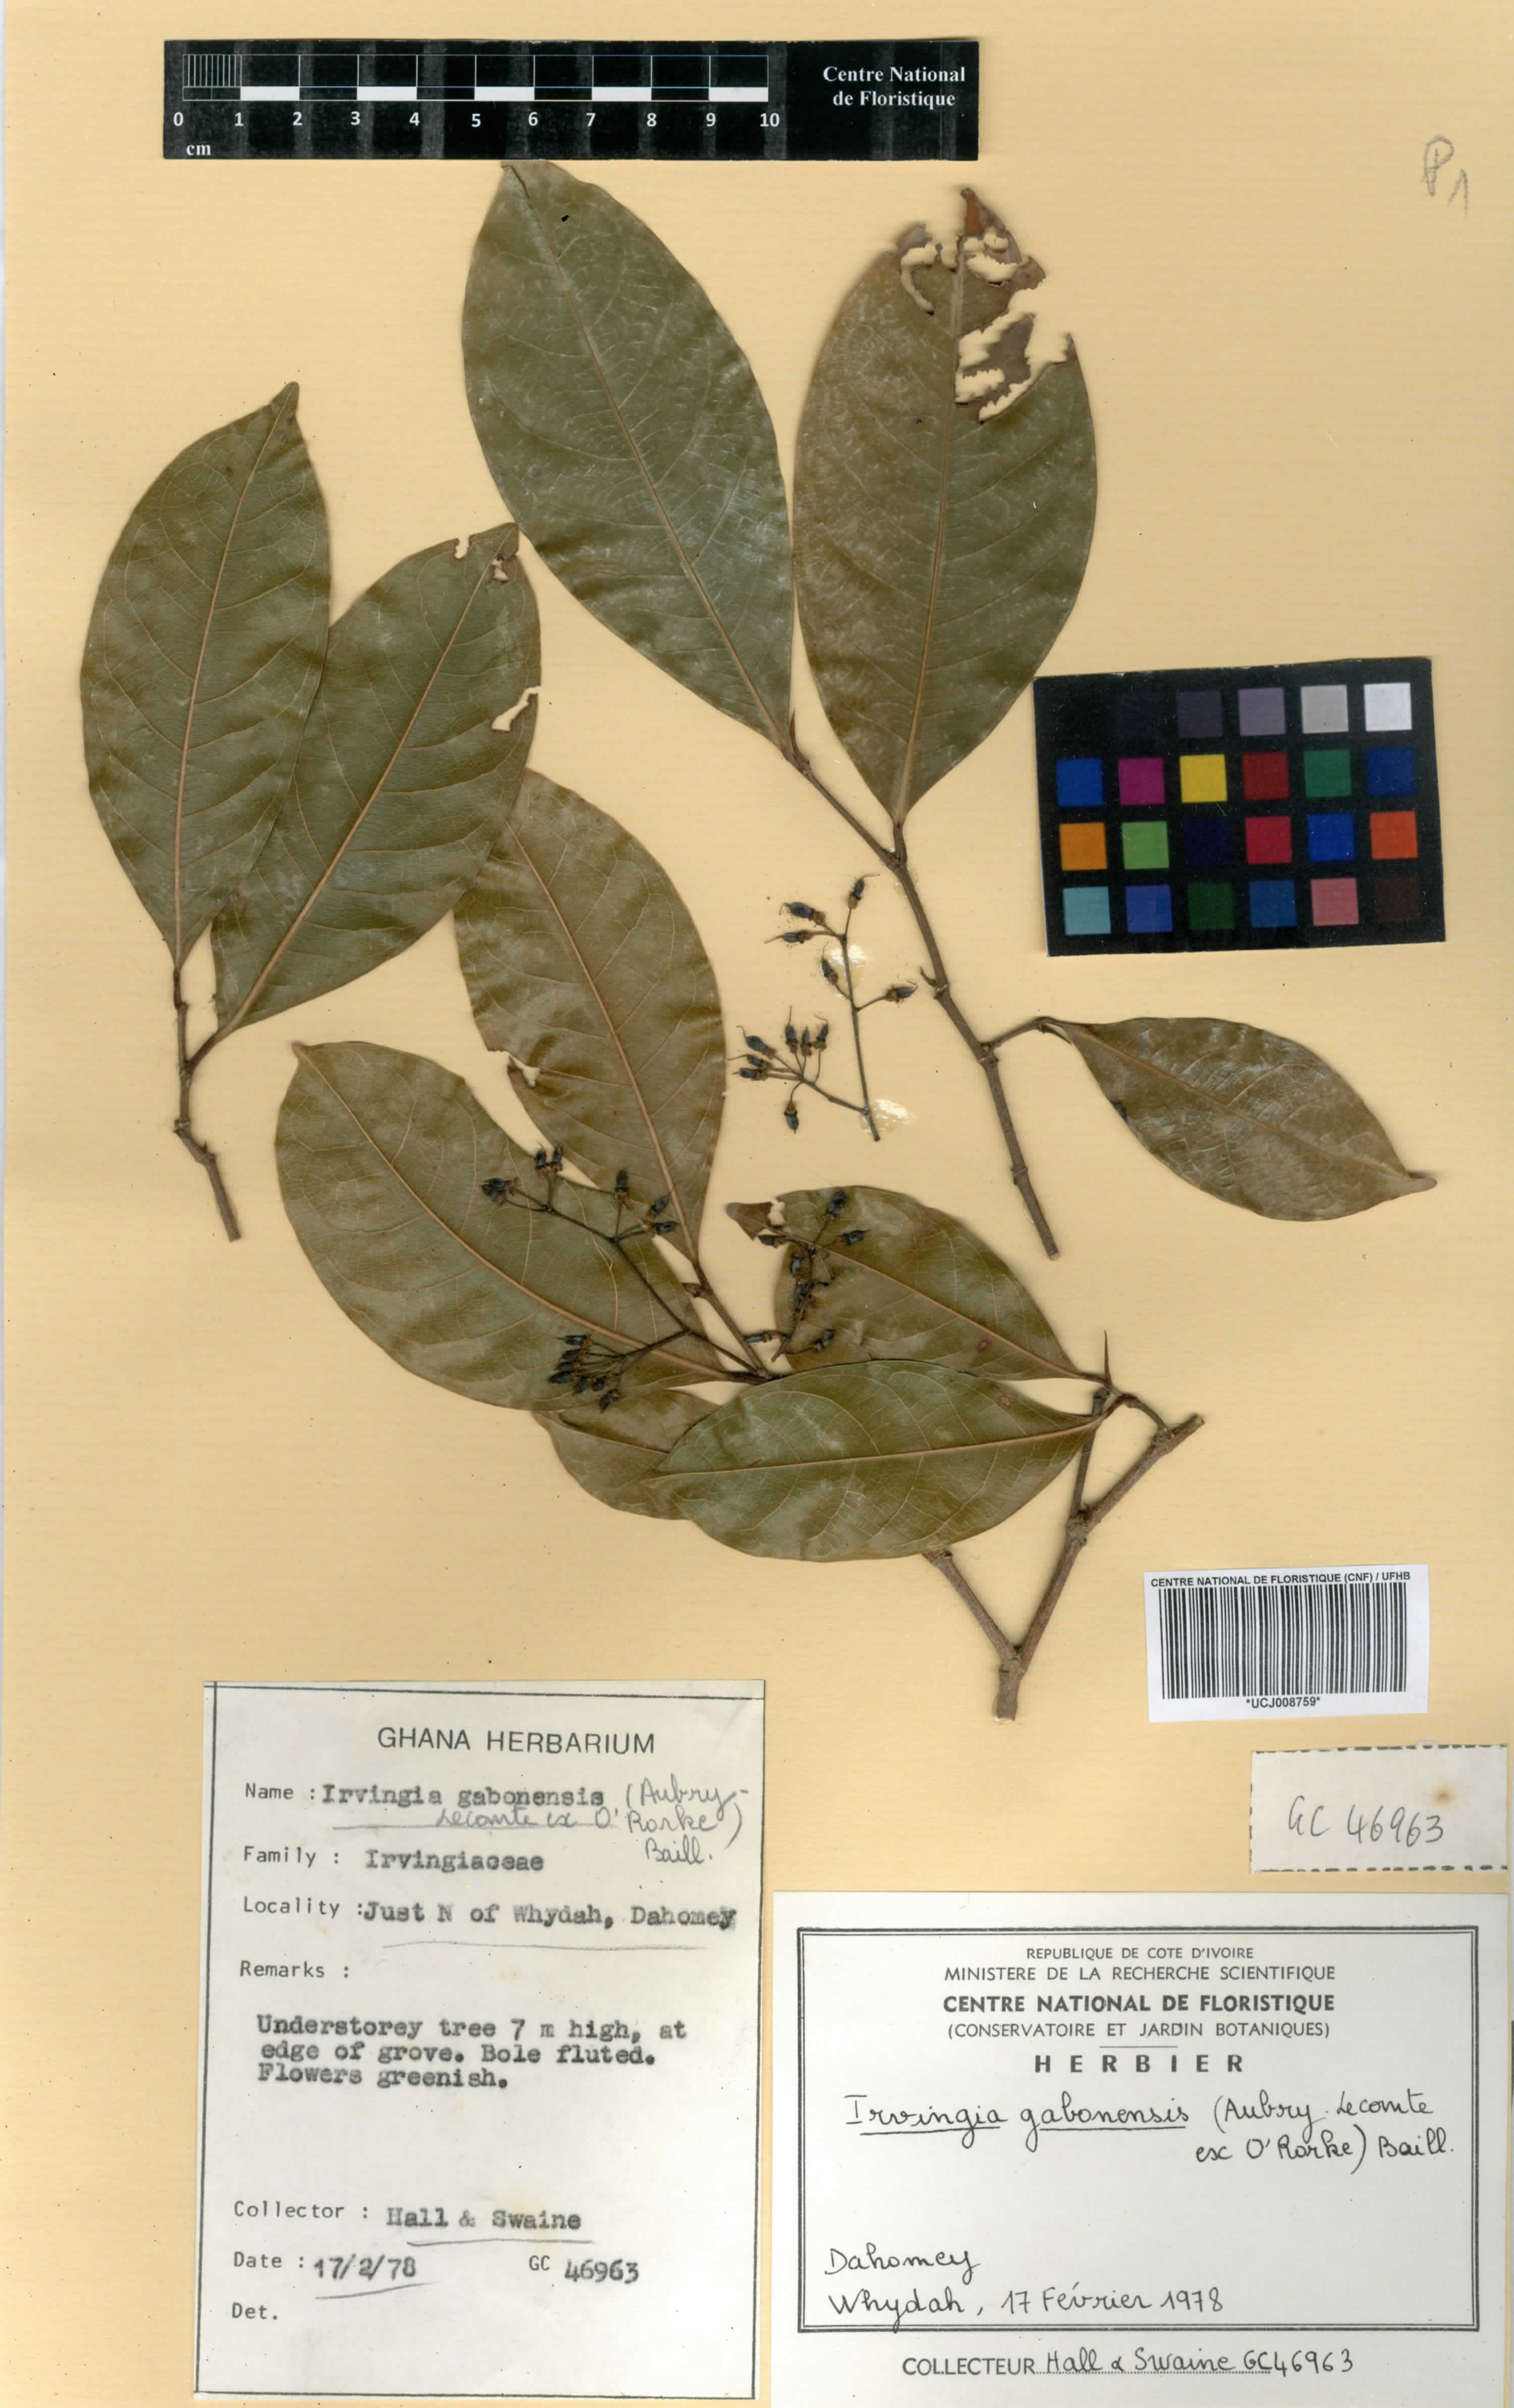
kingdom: Plantae
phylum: Tracheophyta
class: Magnoliopsida
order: Malpighiales
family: Irvingiaceae
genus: Irvingia
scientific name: Irvingia gabonensis
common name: Rainy season bush-mango
